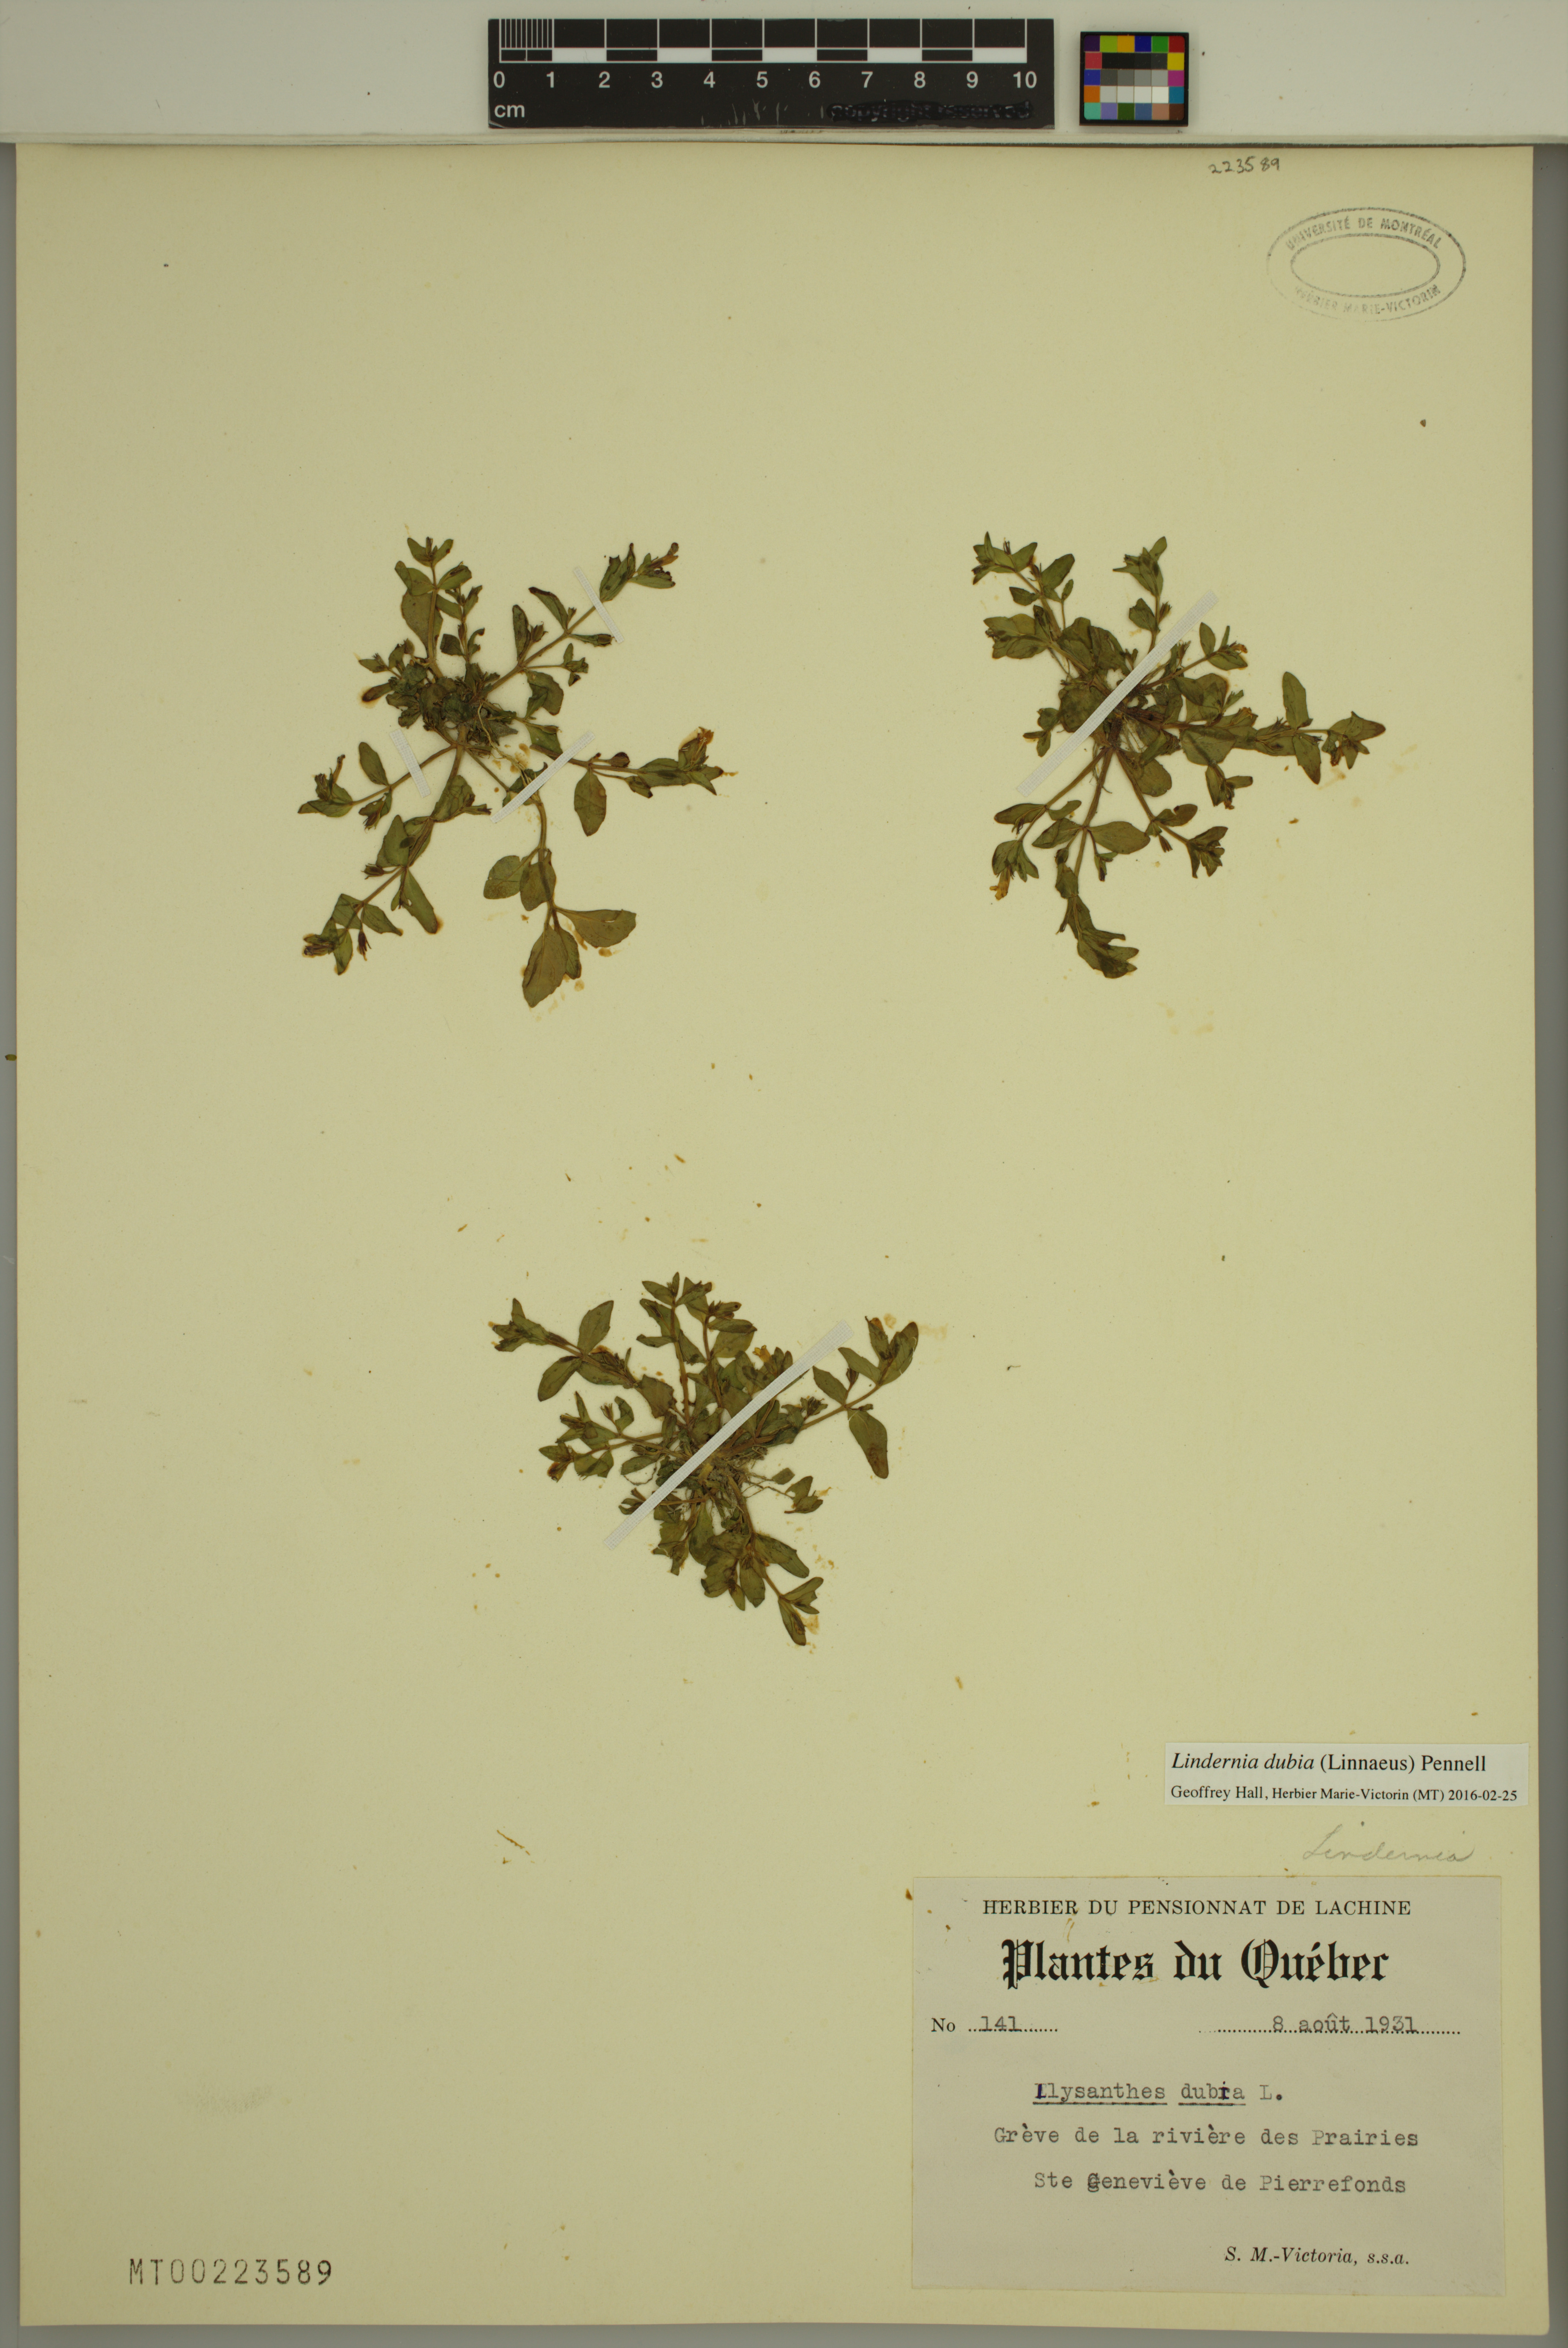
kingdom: Plantae
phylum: Tracheophyta
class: Magnoliopsida
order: Lamiales
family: Linderniaceae
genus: Lindernia
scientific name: Lindernia dubia
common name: Annual false pimpernel
